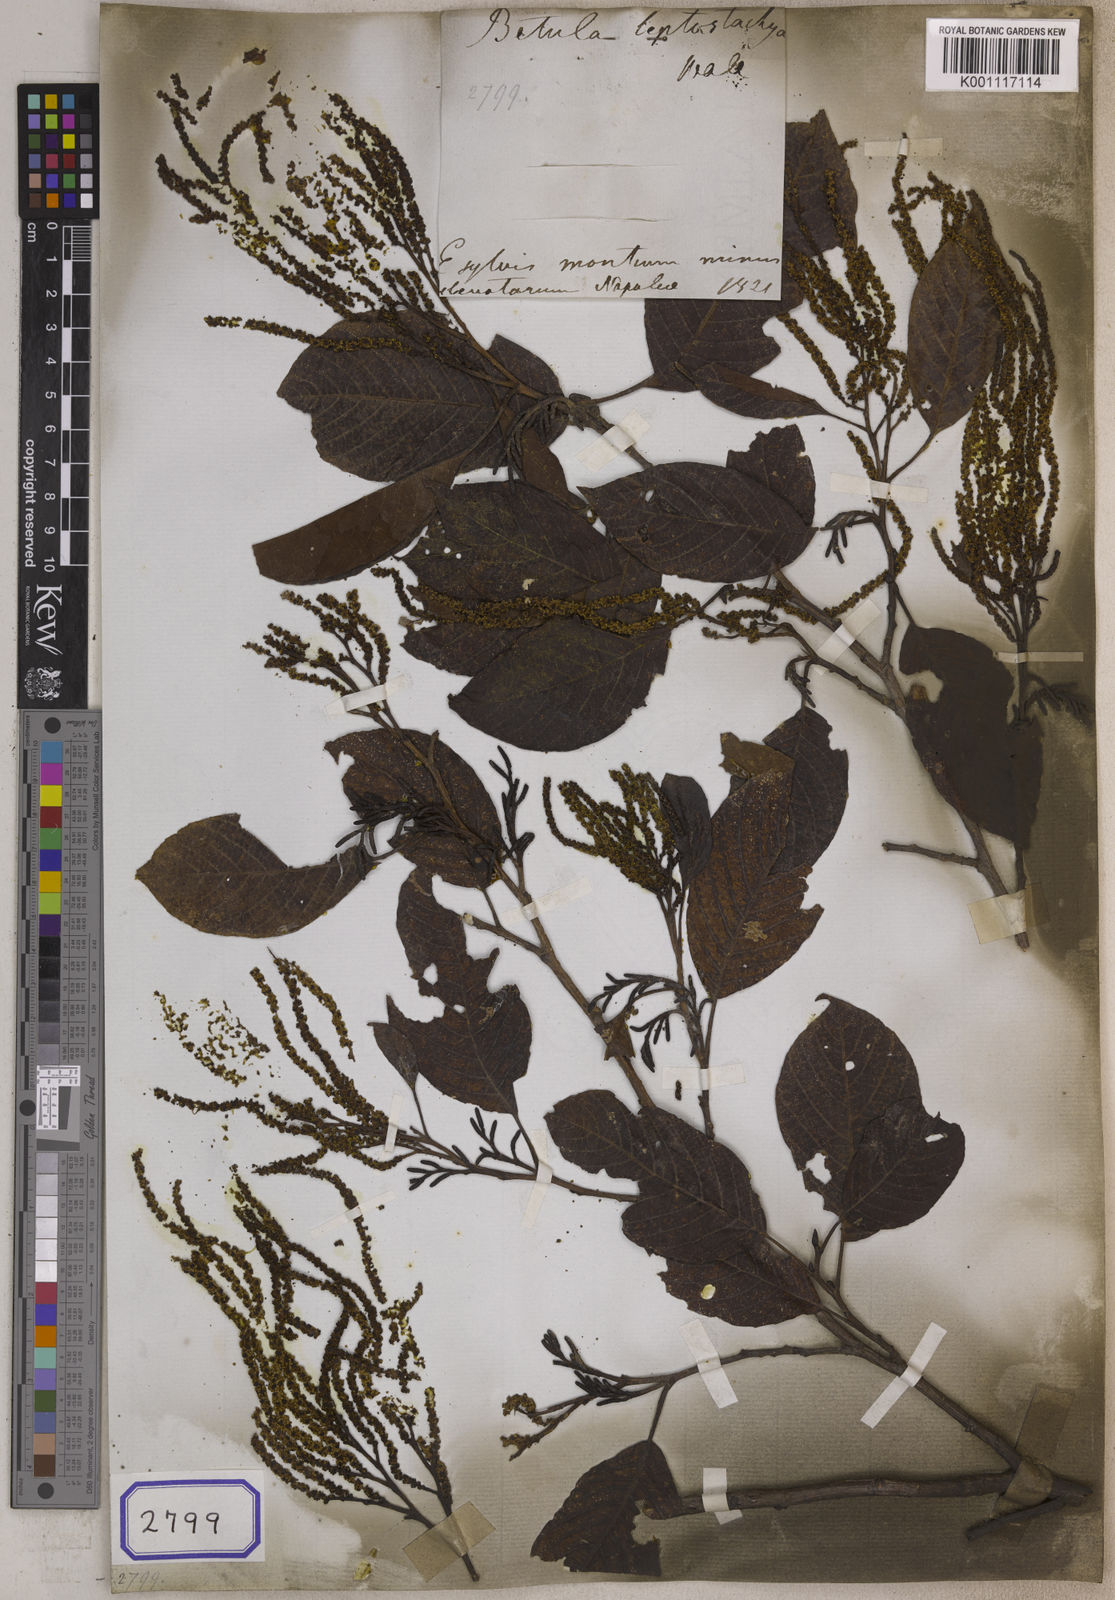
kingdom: Plantae
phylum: Tracheophyta
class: Magnoliopsida
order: Fagales
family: Betulaceae
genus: Alnus
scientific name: Alnus nepalensis
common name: Nepal alder
